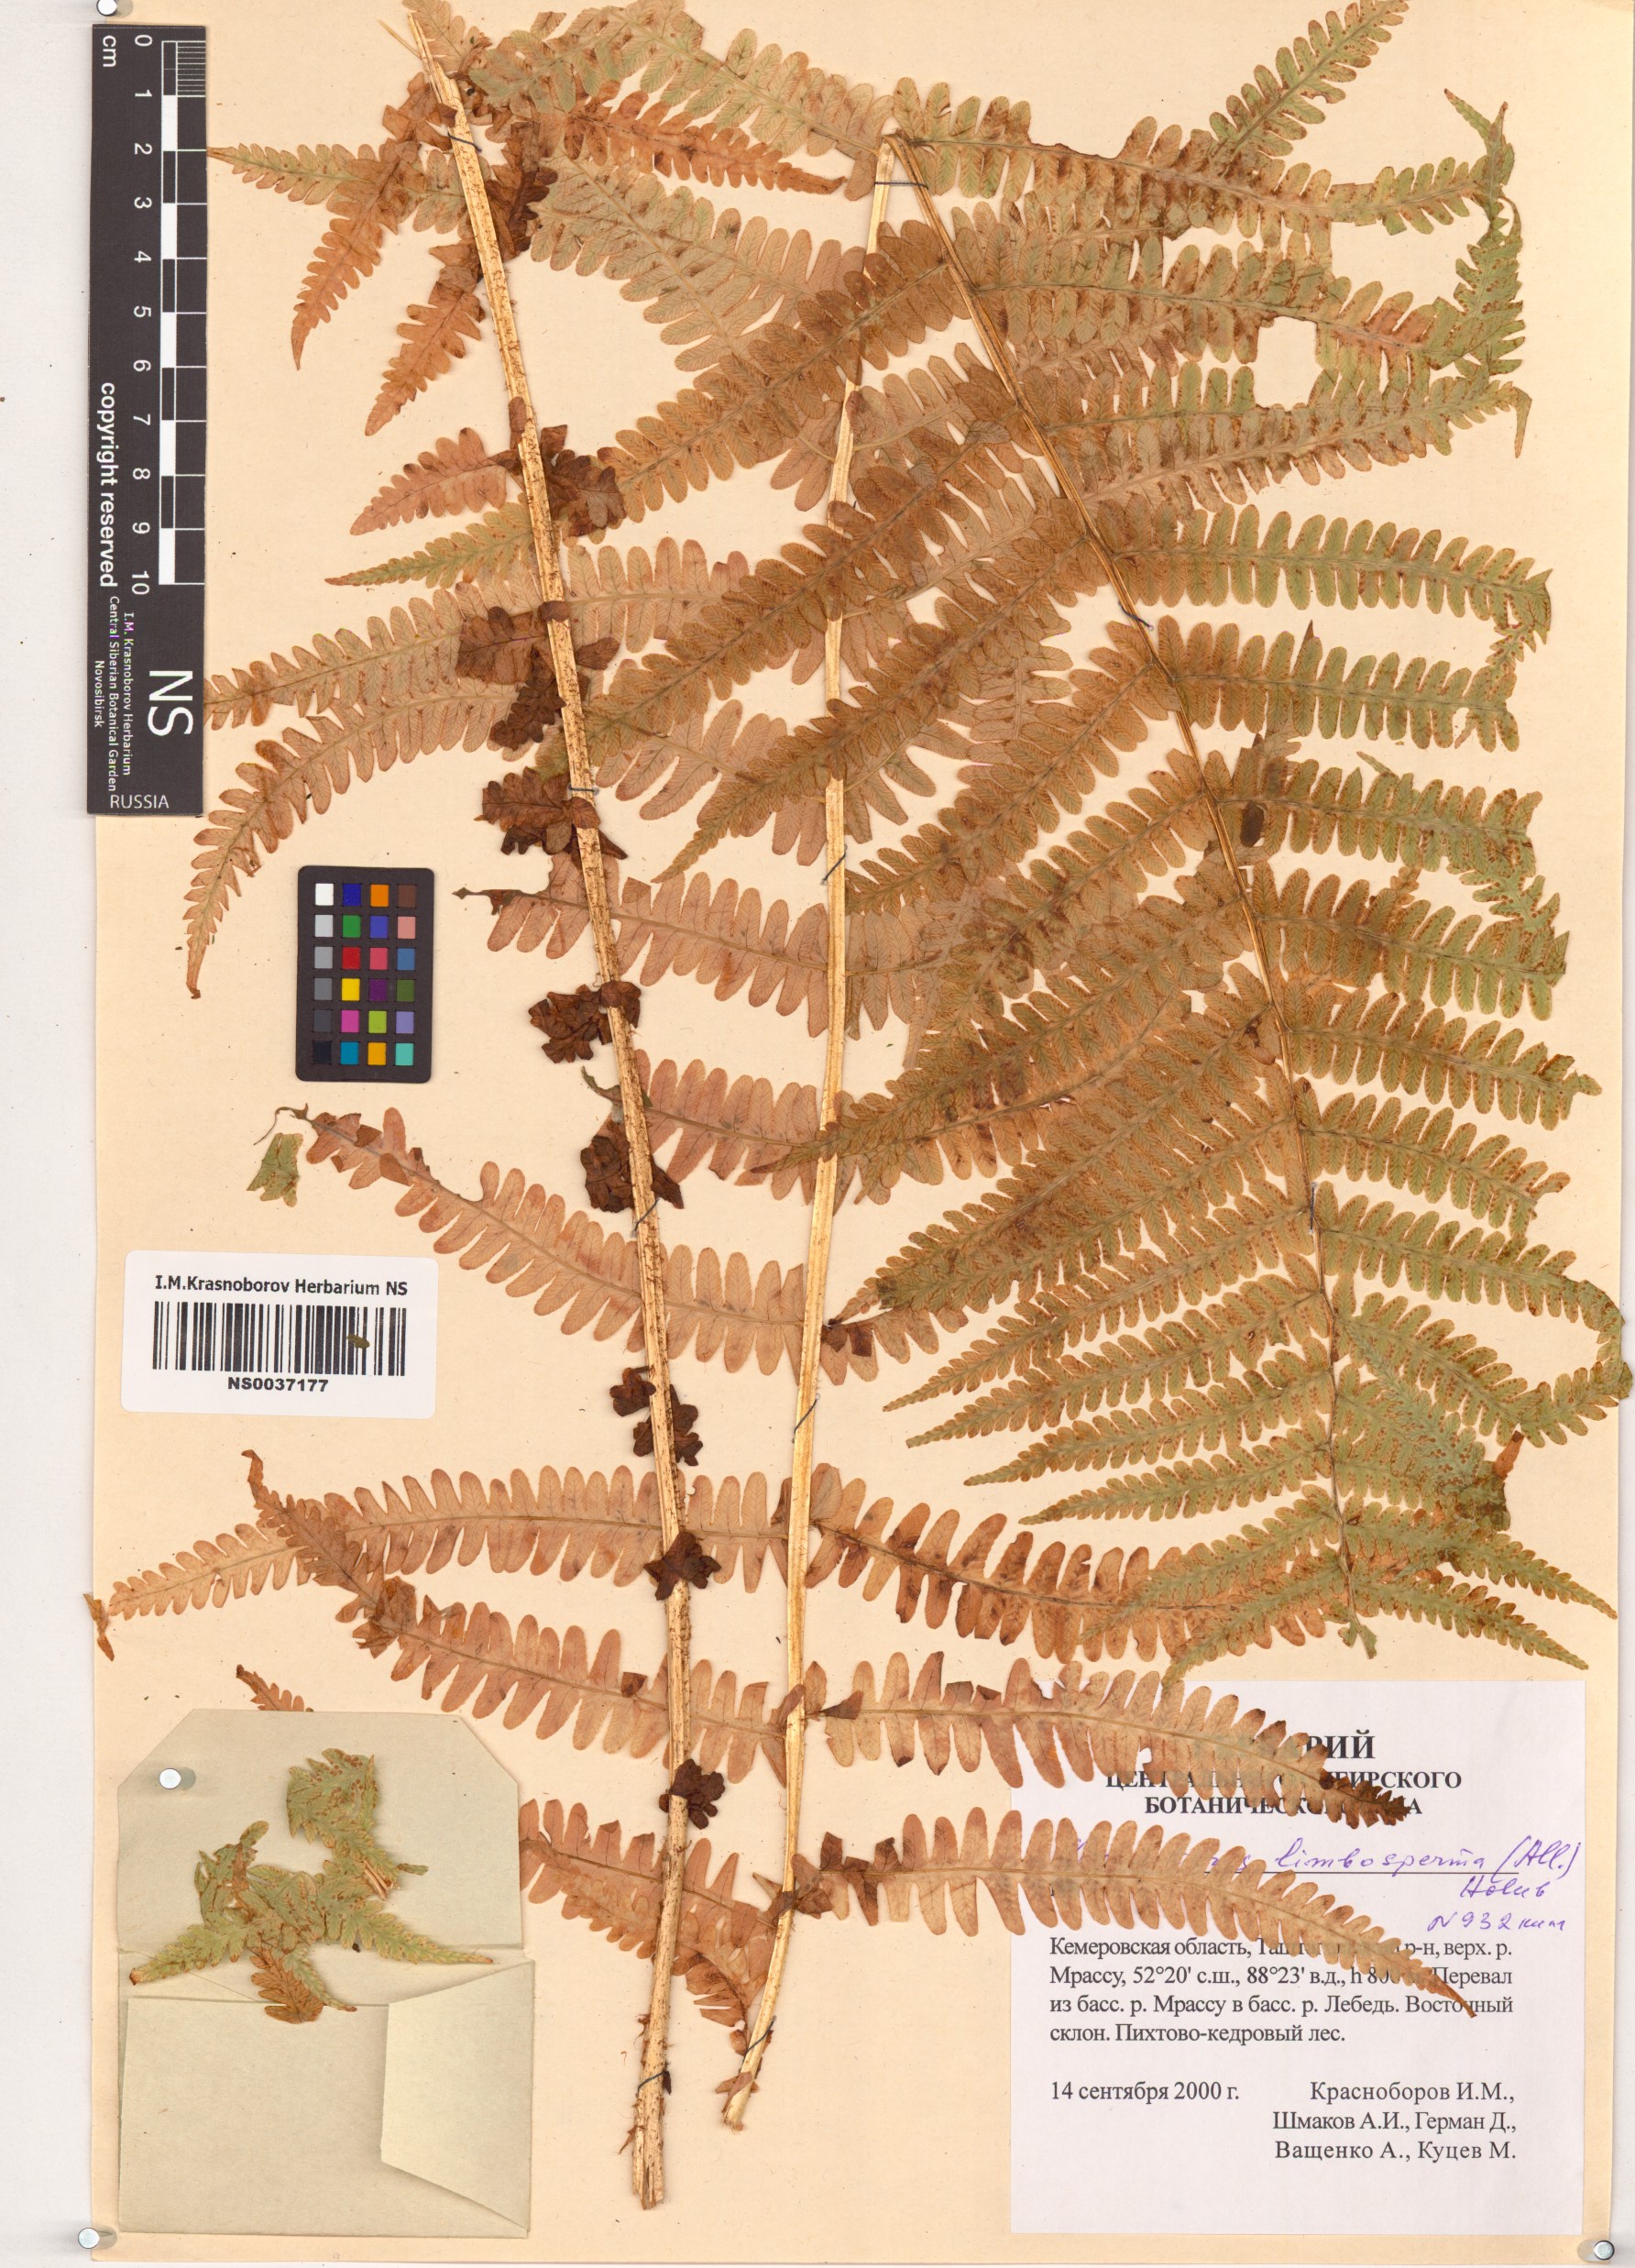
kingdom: Plantae
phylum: Tracheophyta
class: Polypodiopsida
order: Polypodiales
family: Thelypteridaceae
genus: Oreopteris
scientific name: Oreopteris limbosperma
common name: Lemon-scented fern
